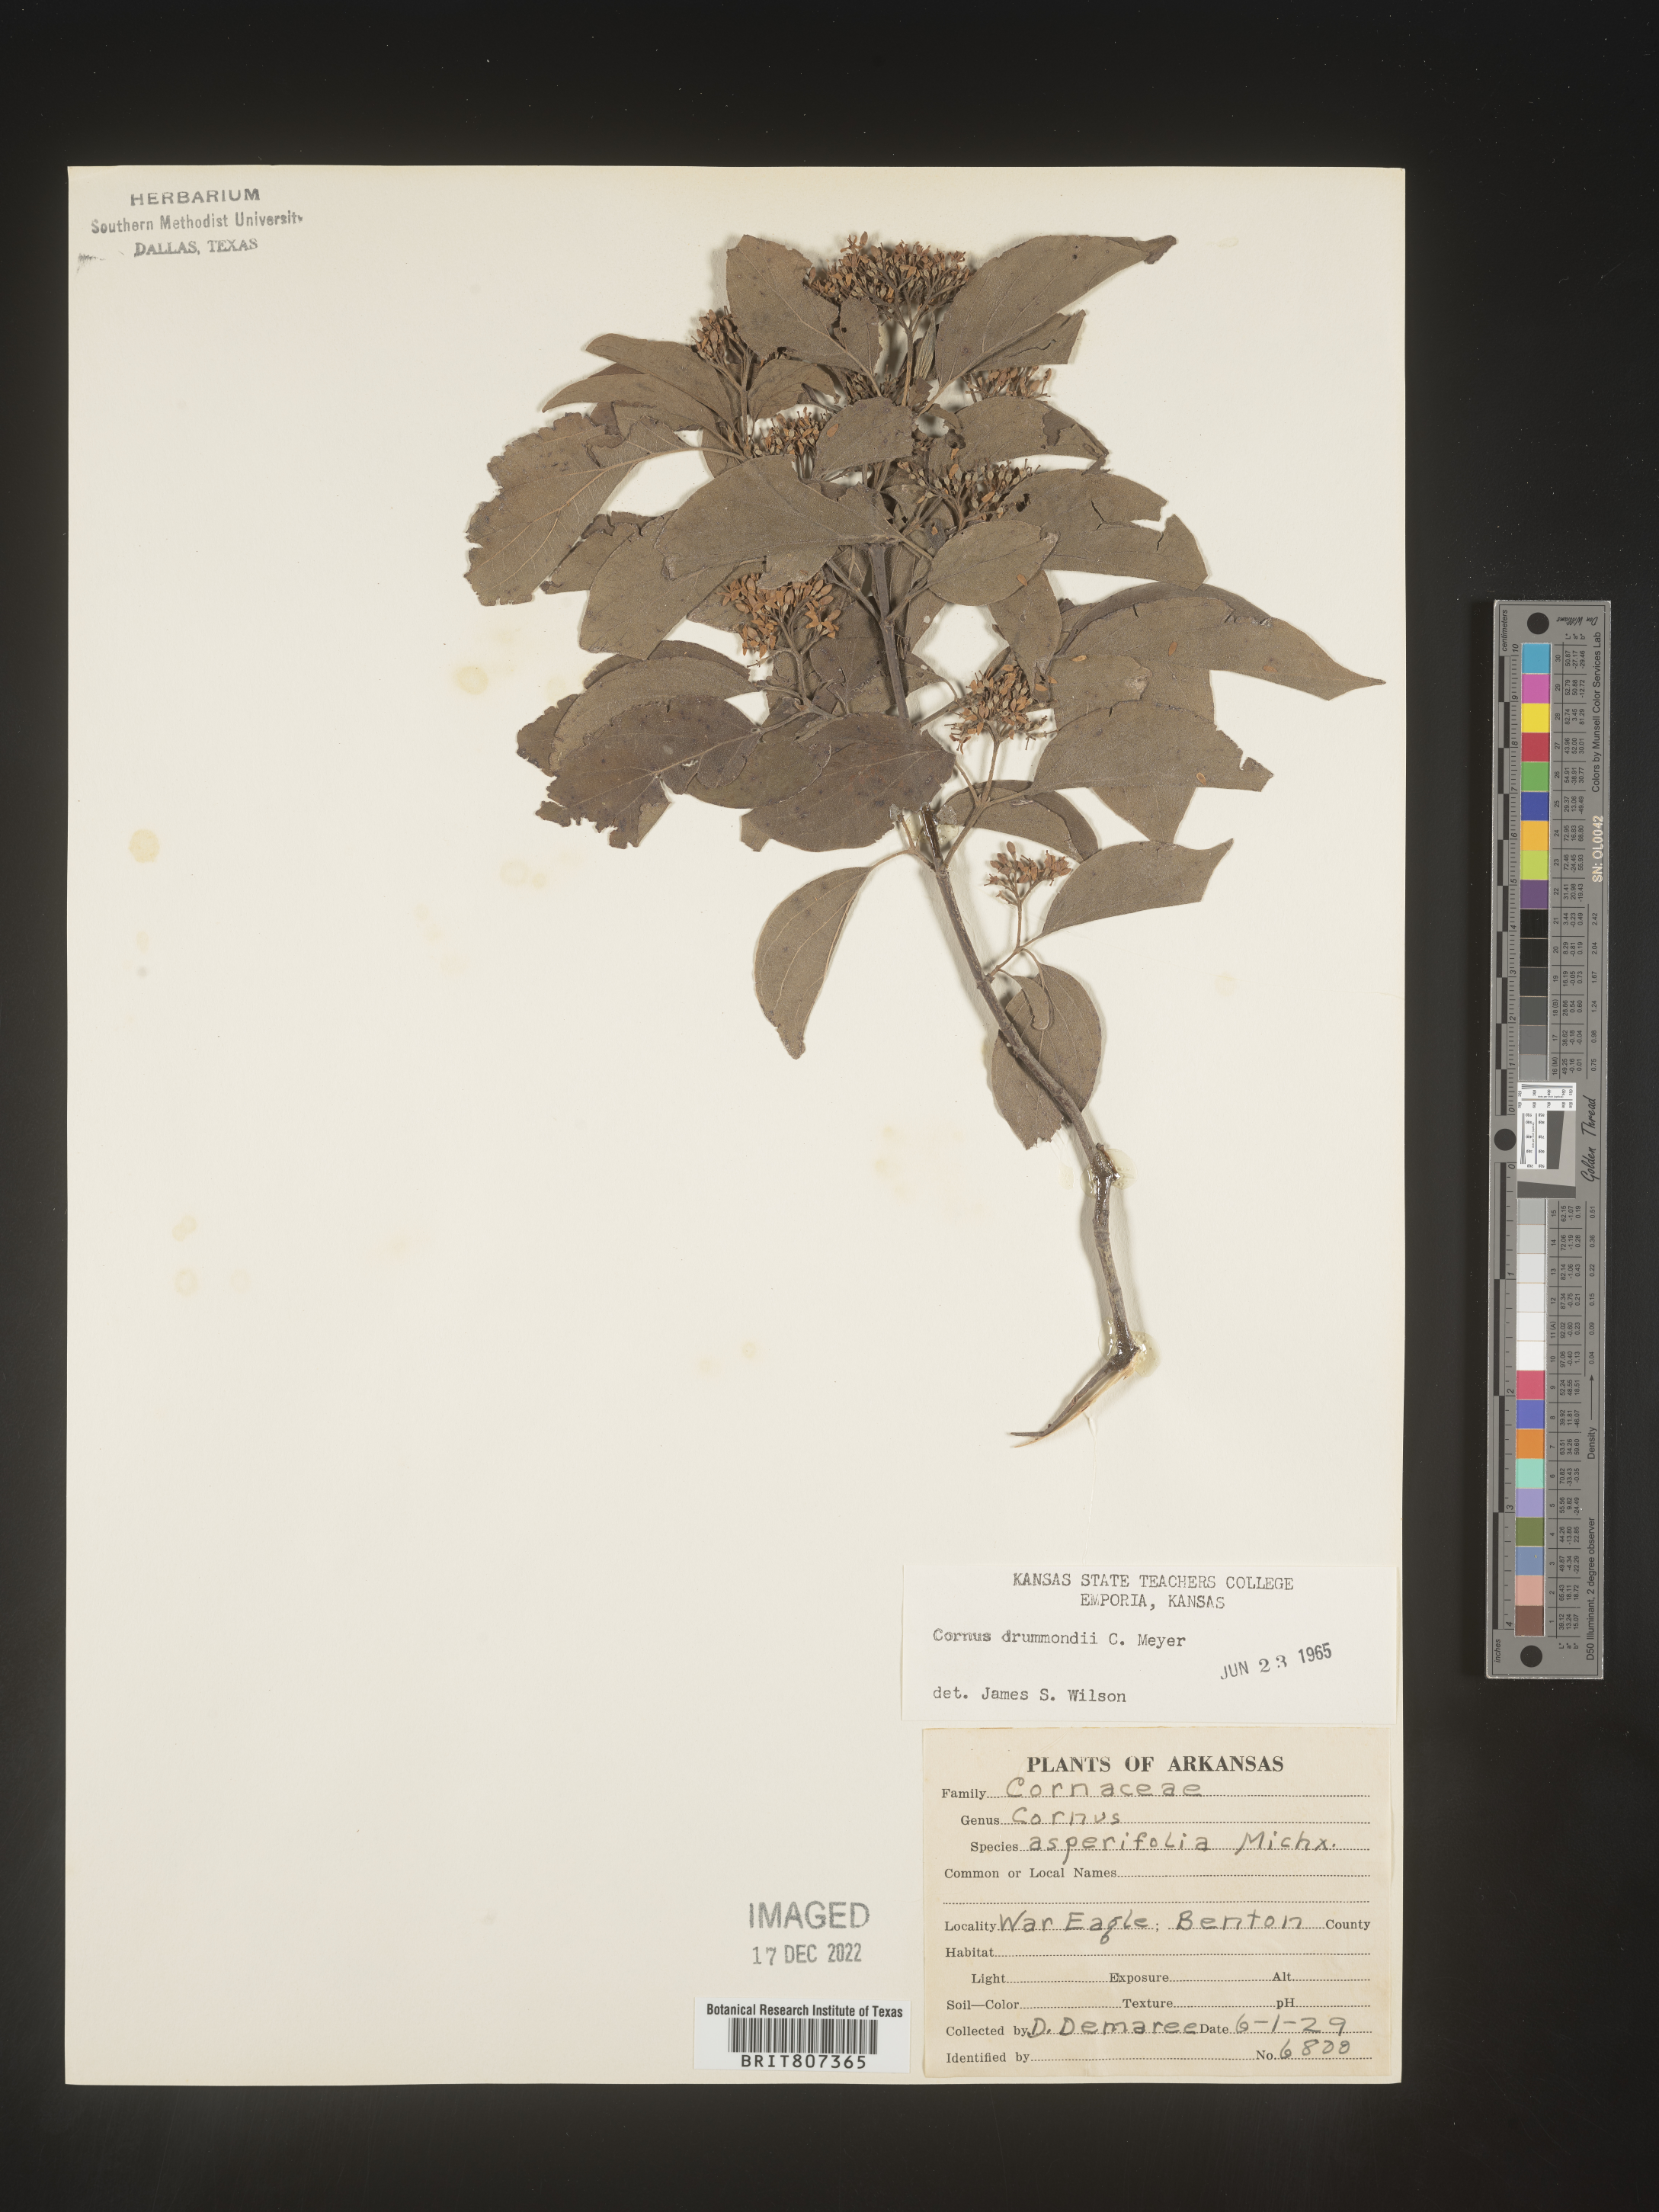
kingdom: Plantae
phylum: Tracheophyta
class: Magnoliopsida
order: Cornales
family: Cornaceae
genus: Cornus
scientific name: Cornus drummondii
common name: Rough-leaf dogwood
